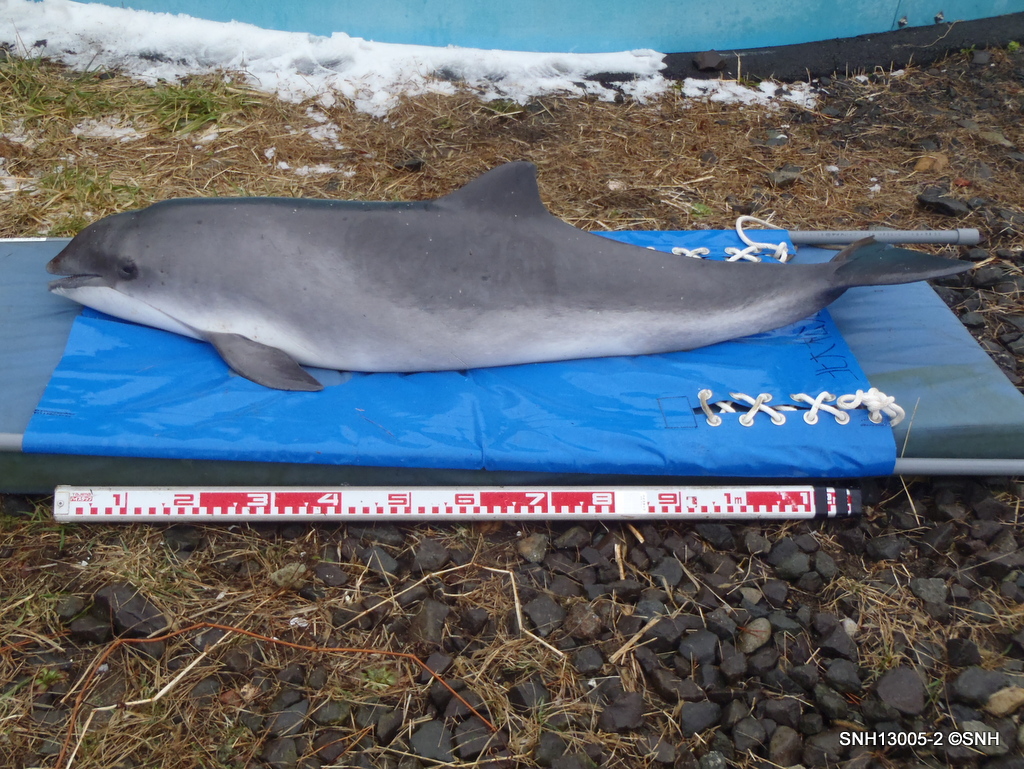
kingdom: Animalia
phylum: Chordata
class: Mammalia
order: Cetacea
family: Phocoenidae
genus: Phocoena
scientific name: Phocoena phocoena
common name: Harbour porpoise
